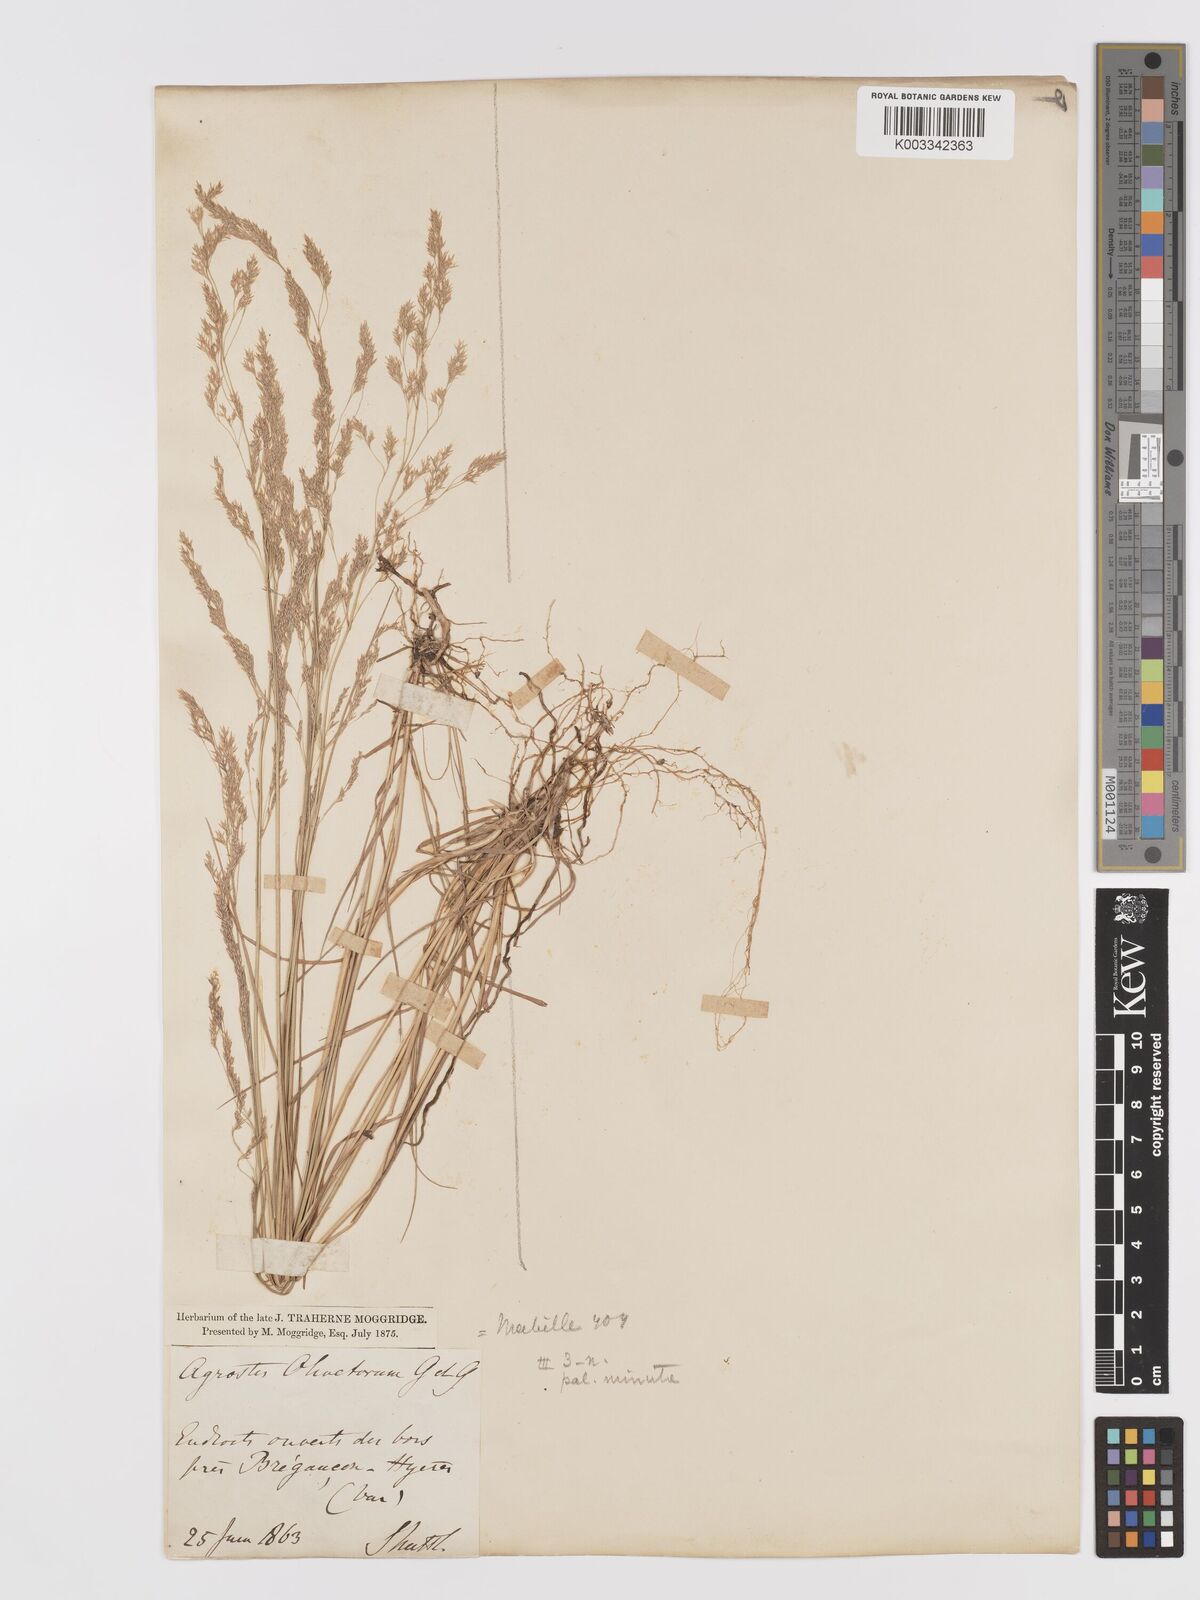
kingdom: Plantae
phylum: Tracheophyta
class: Liliopsida
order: Poales
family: Poaceae
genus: Agrostis
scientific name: Agrostis castellana
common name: Highland bent
